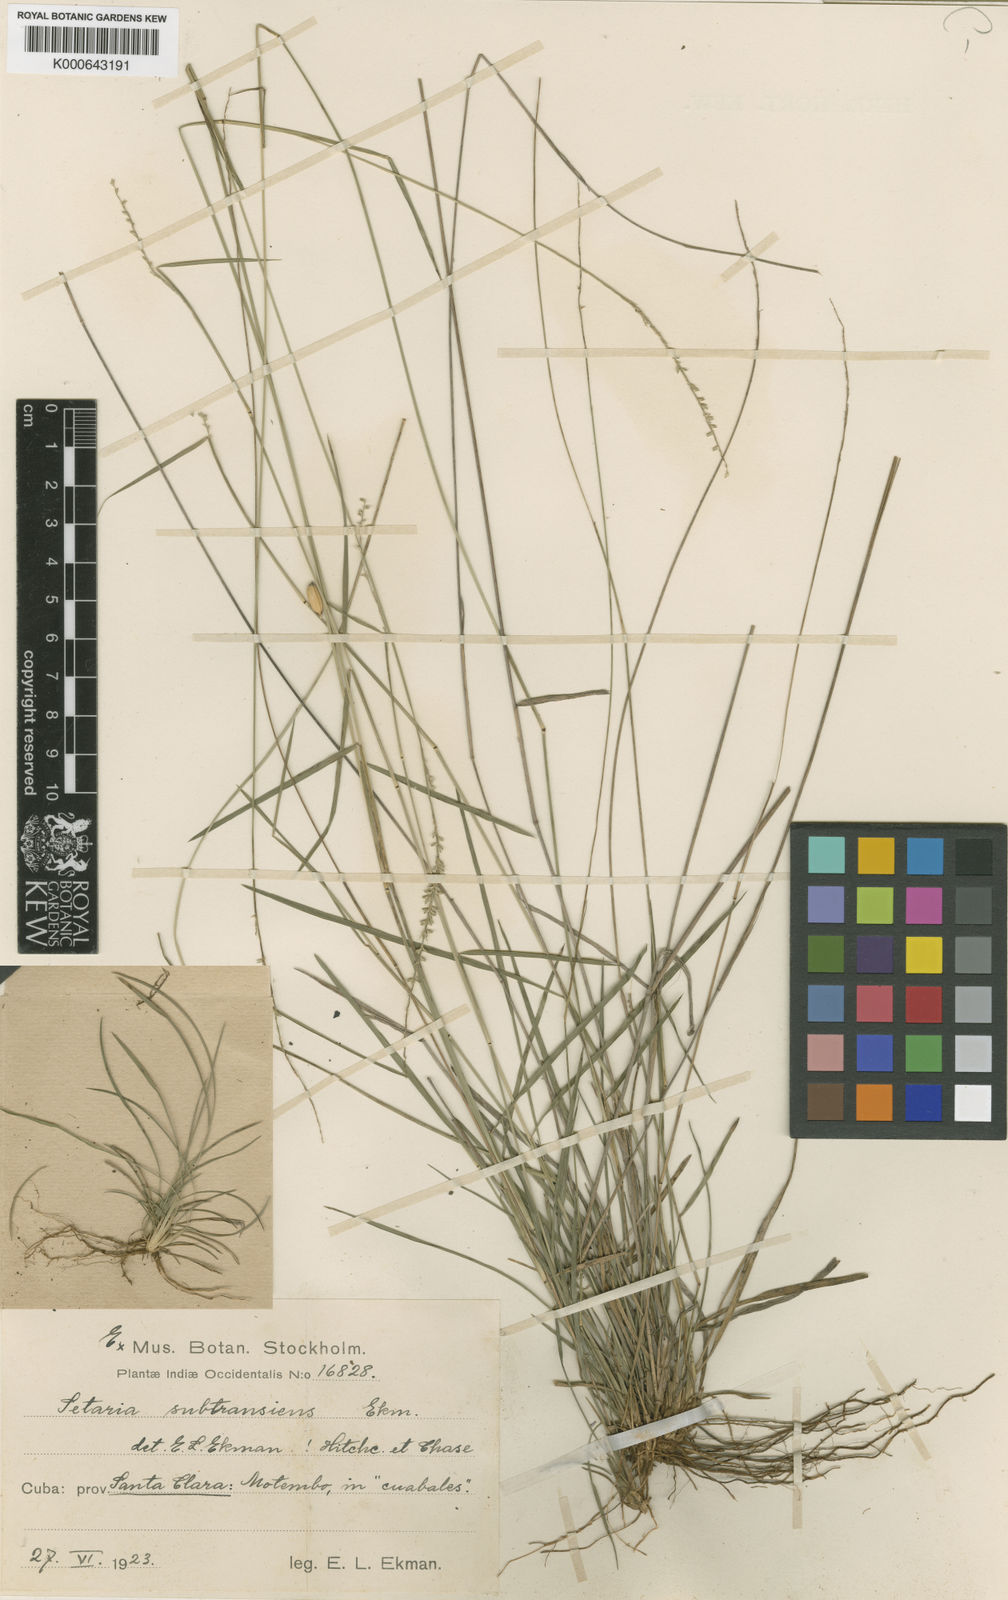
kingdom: Plantae
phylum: Tracheophyta
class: Liliopsida
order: Poales
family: Poaceae
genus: Setaria
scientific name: Setaria utowanaea
